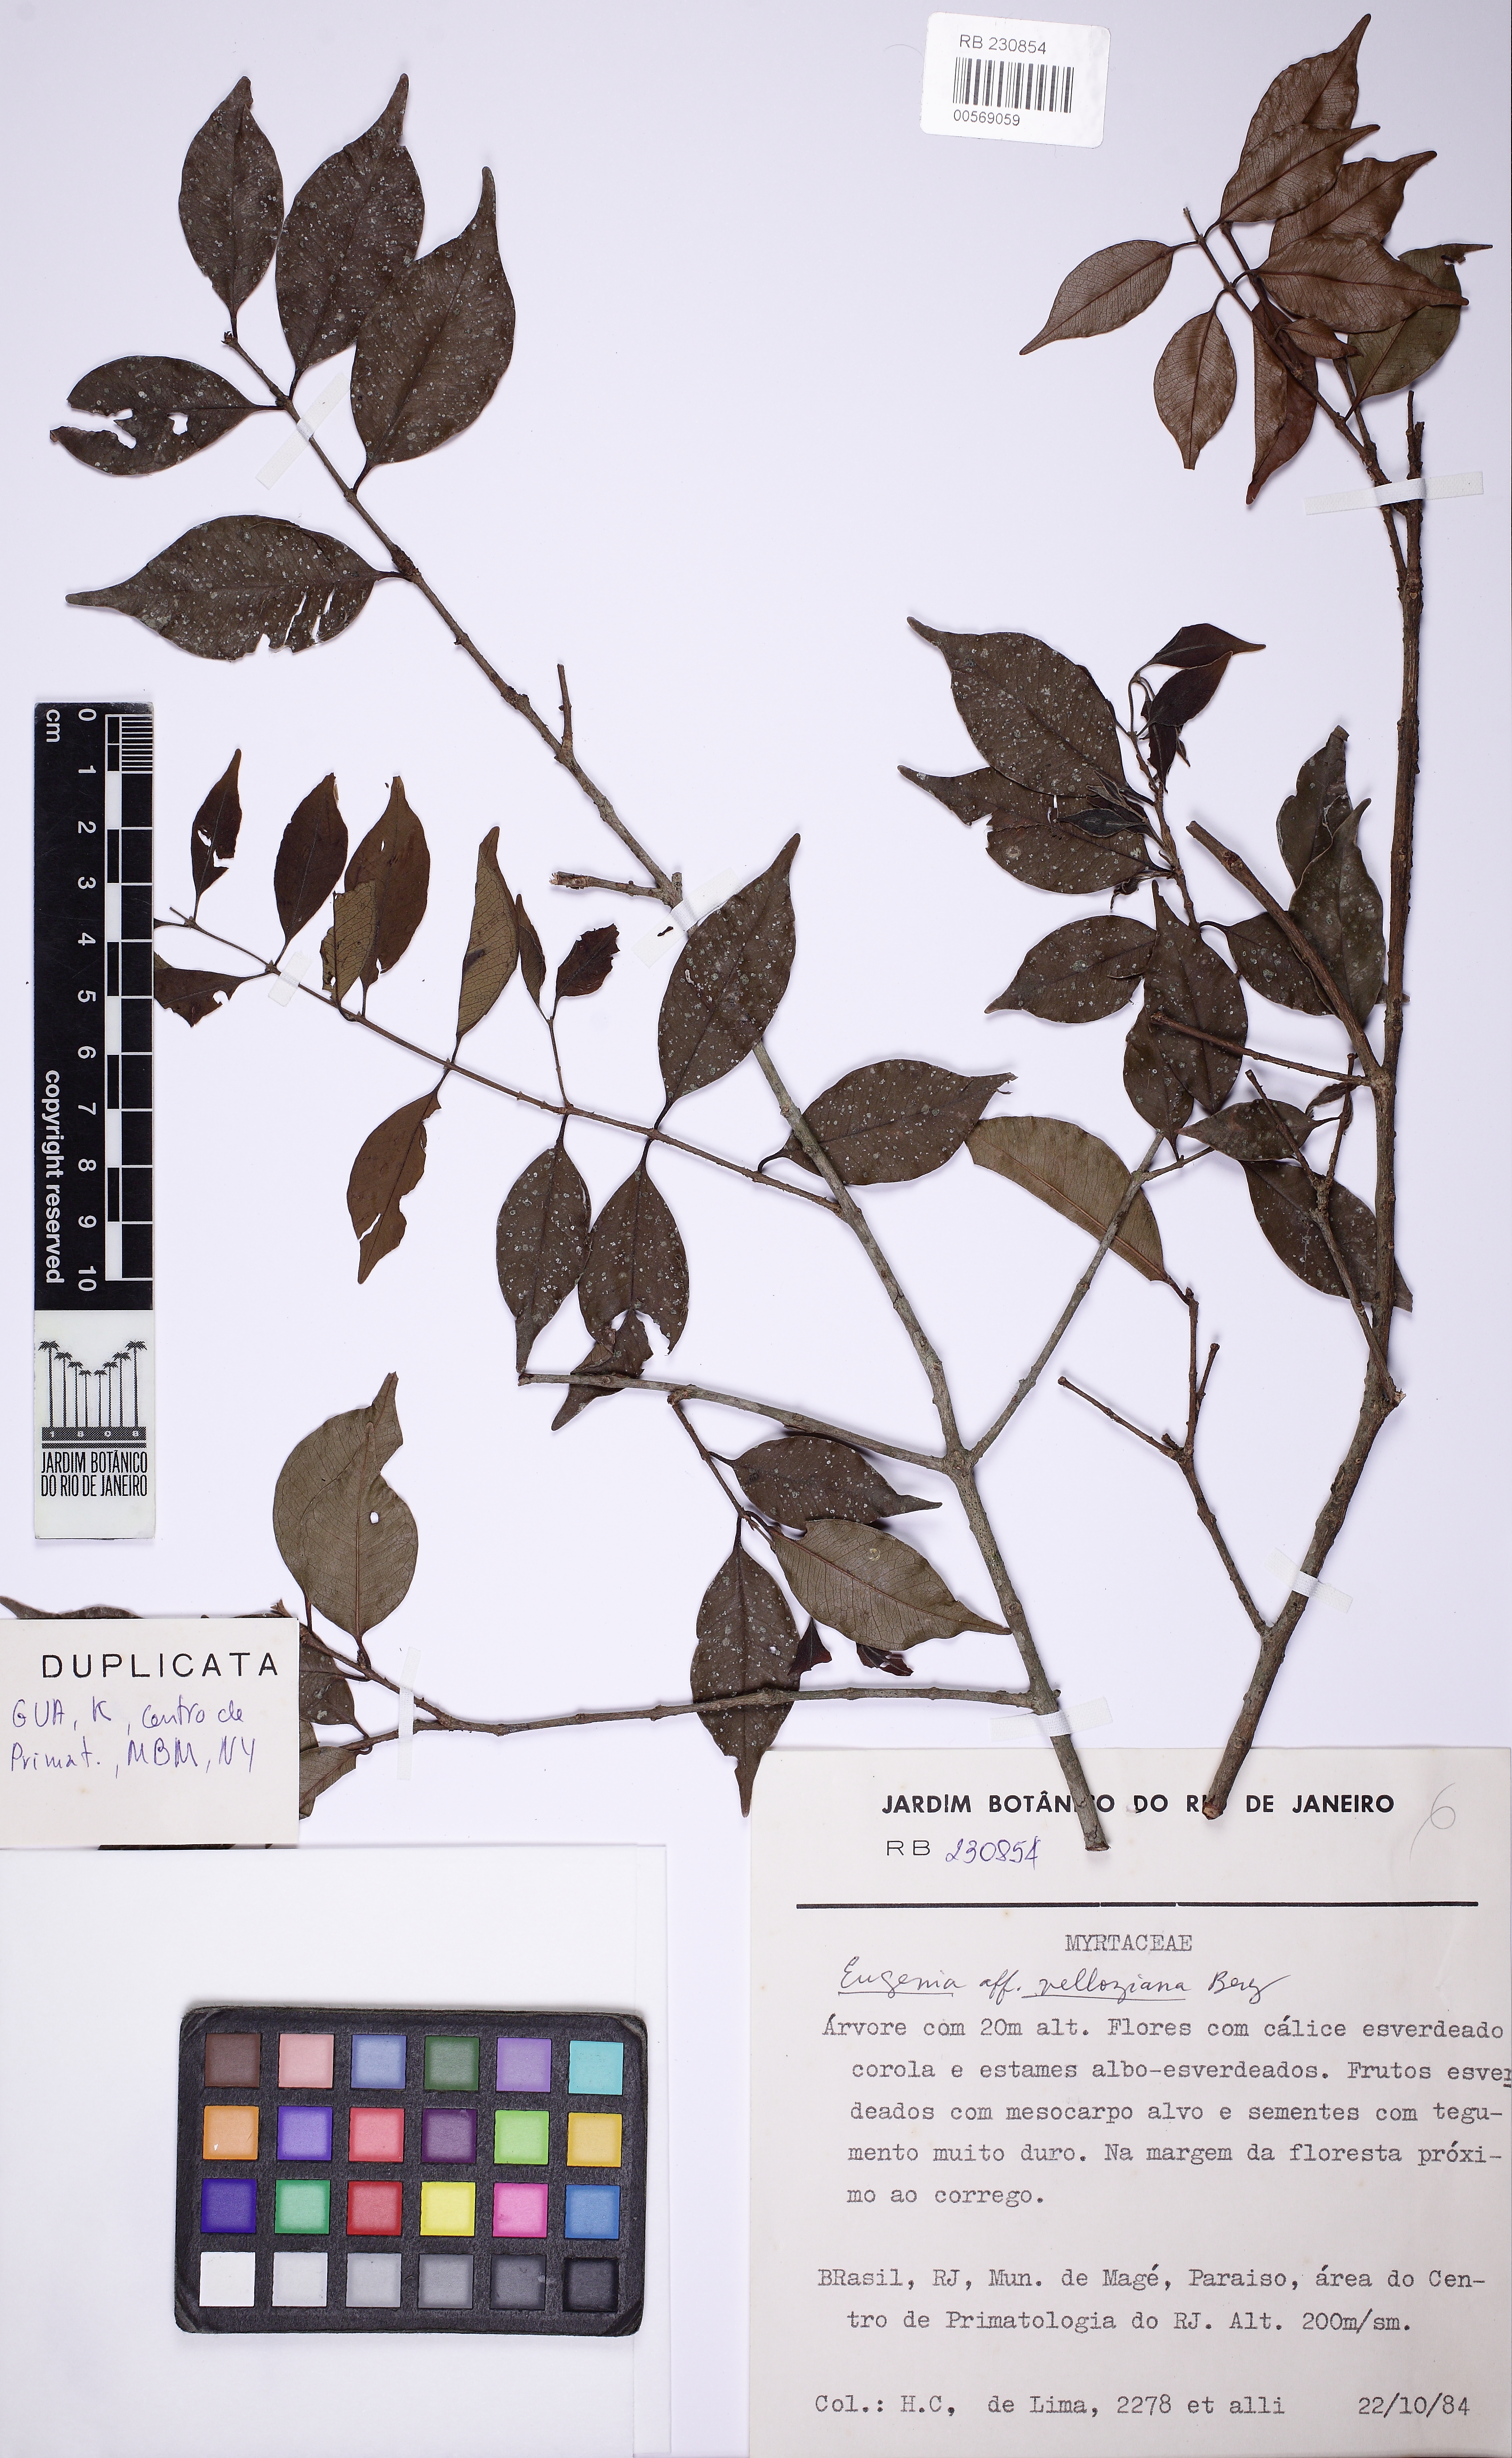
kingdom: Plantae
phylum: Tracheophyta
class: Magnoliopsida
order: Myrtales
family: Myrtaceae
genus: Eugenia
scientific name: Eugenia crenata
